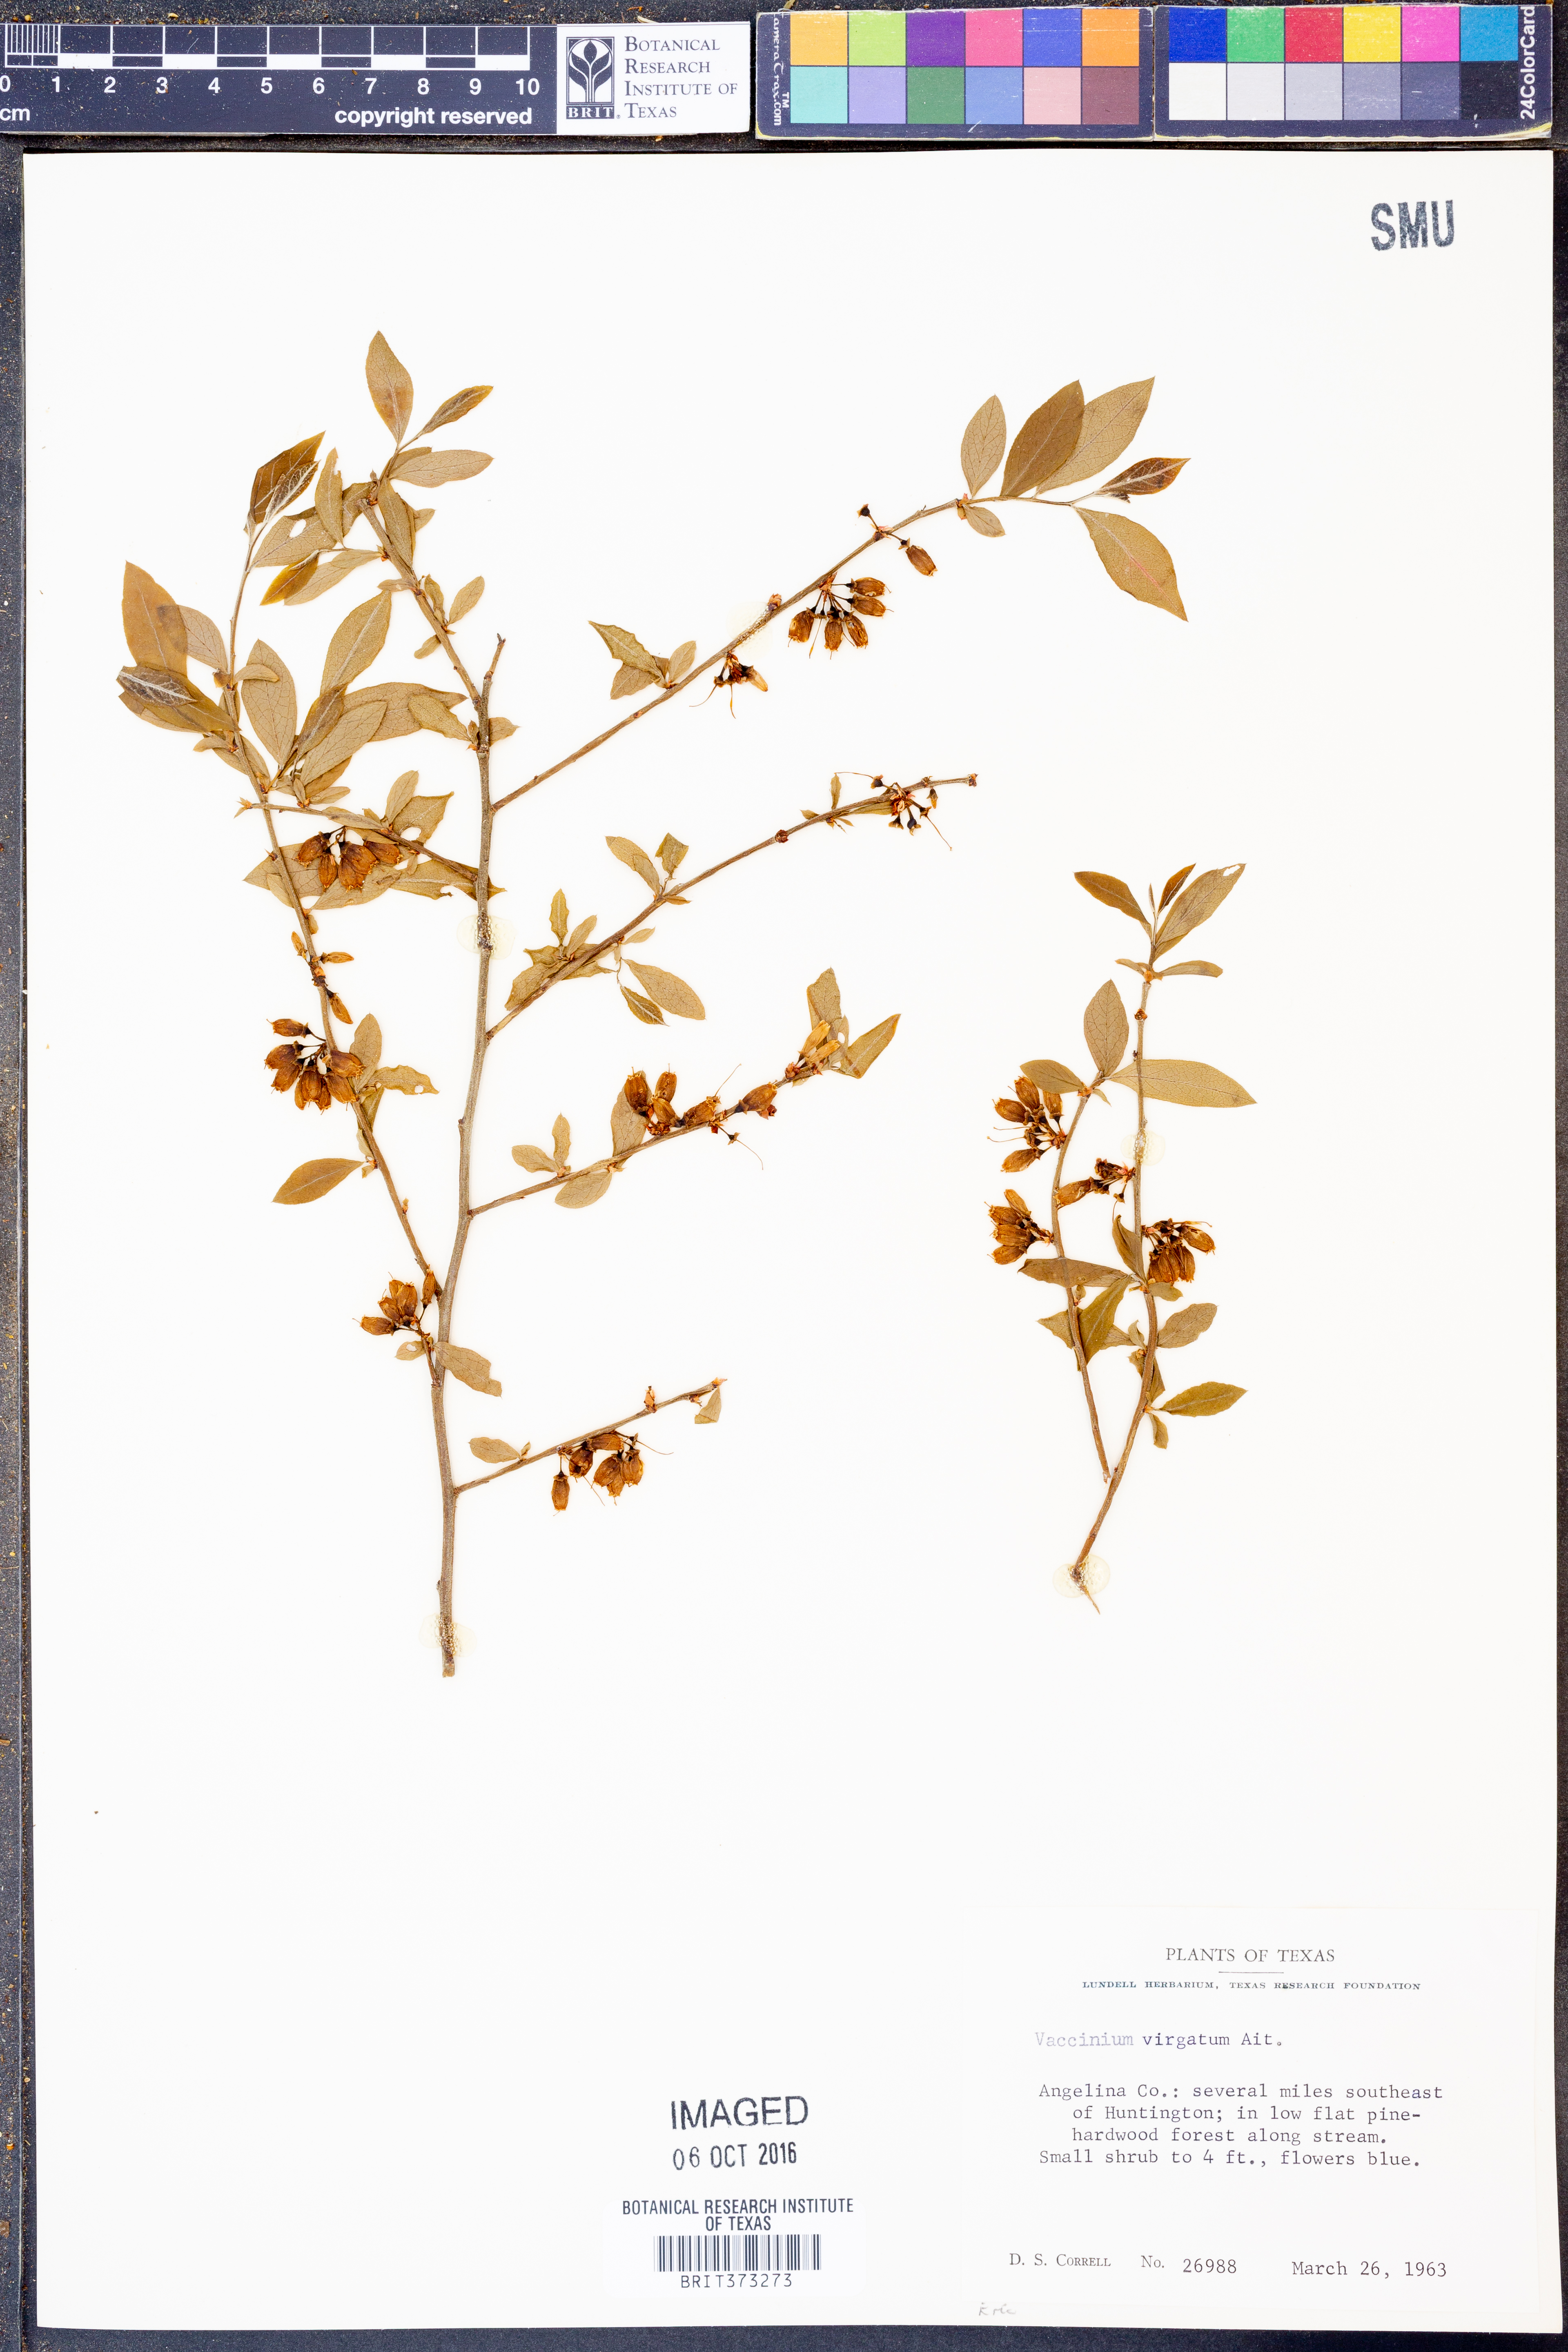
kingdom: Plantae
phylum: Tracheophyta
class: Magnoliopsida
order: Ericales
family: Ericaceae
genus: Vaccinium
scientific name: Vaccinium corymbosum
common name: Blueberry
